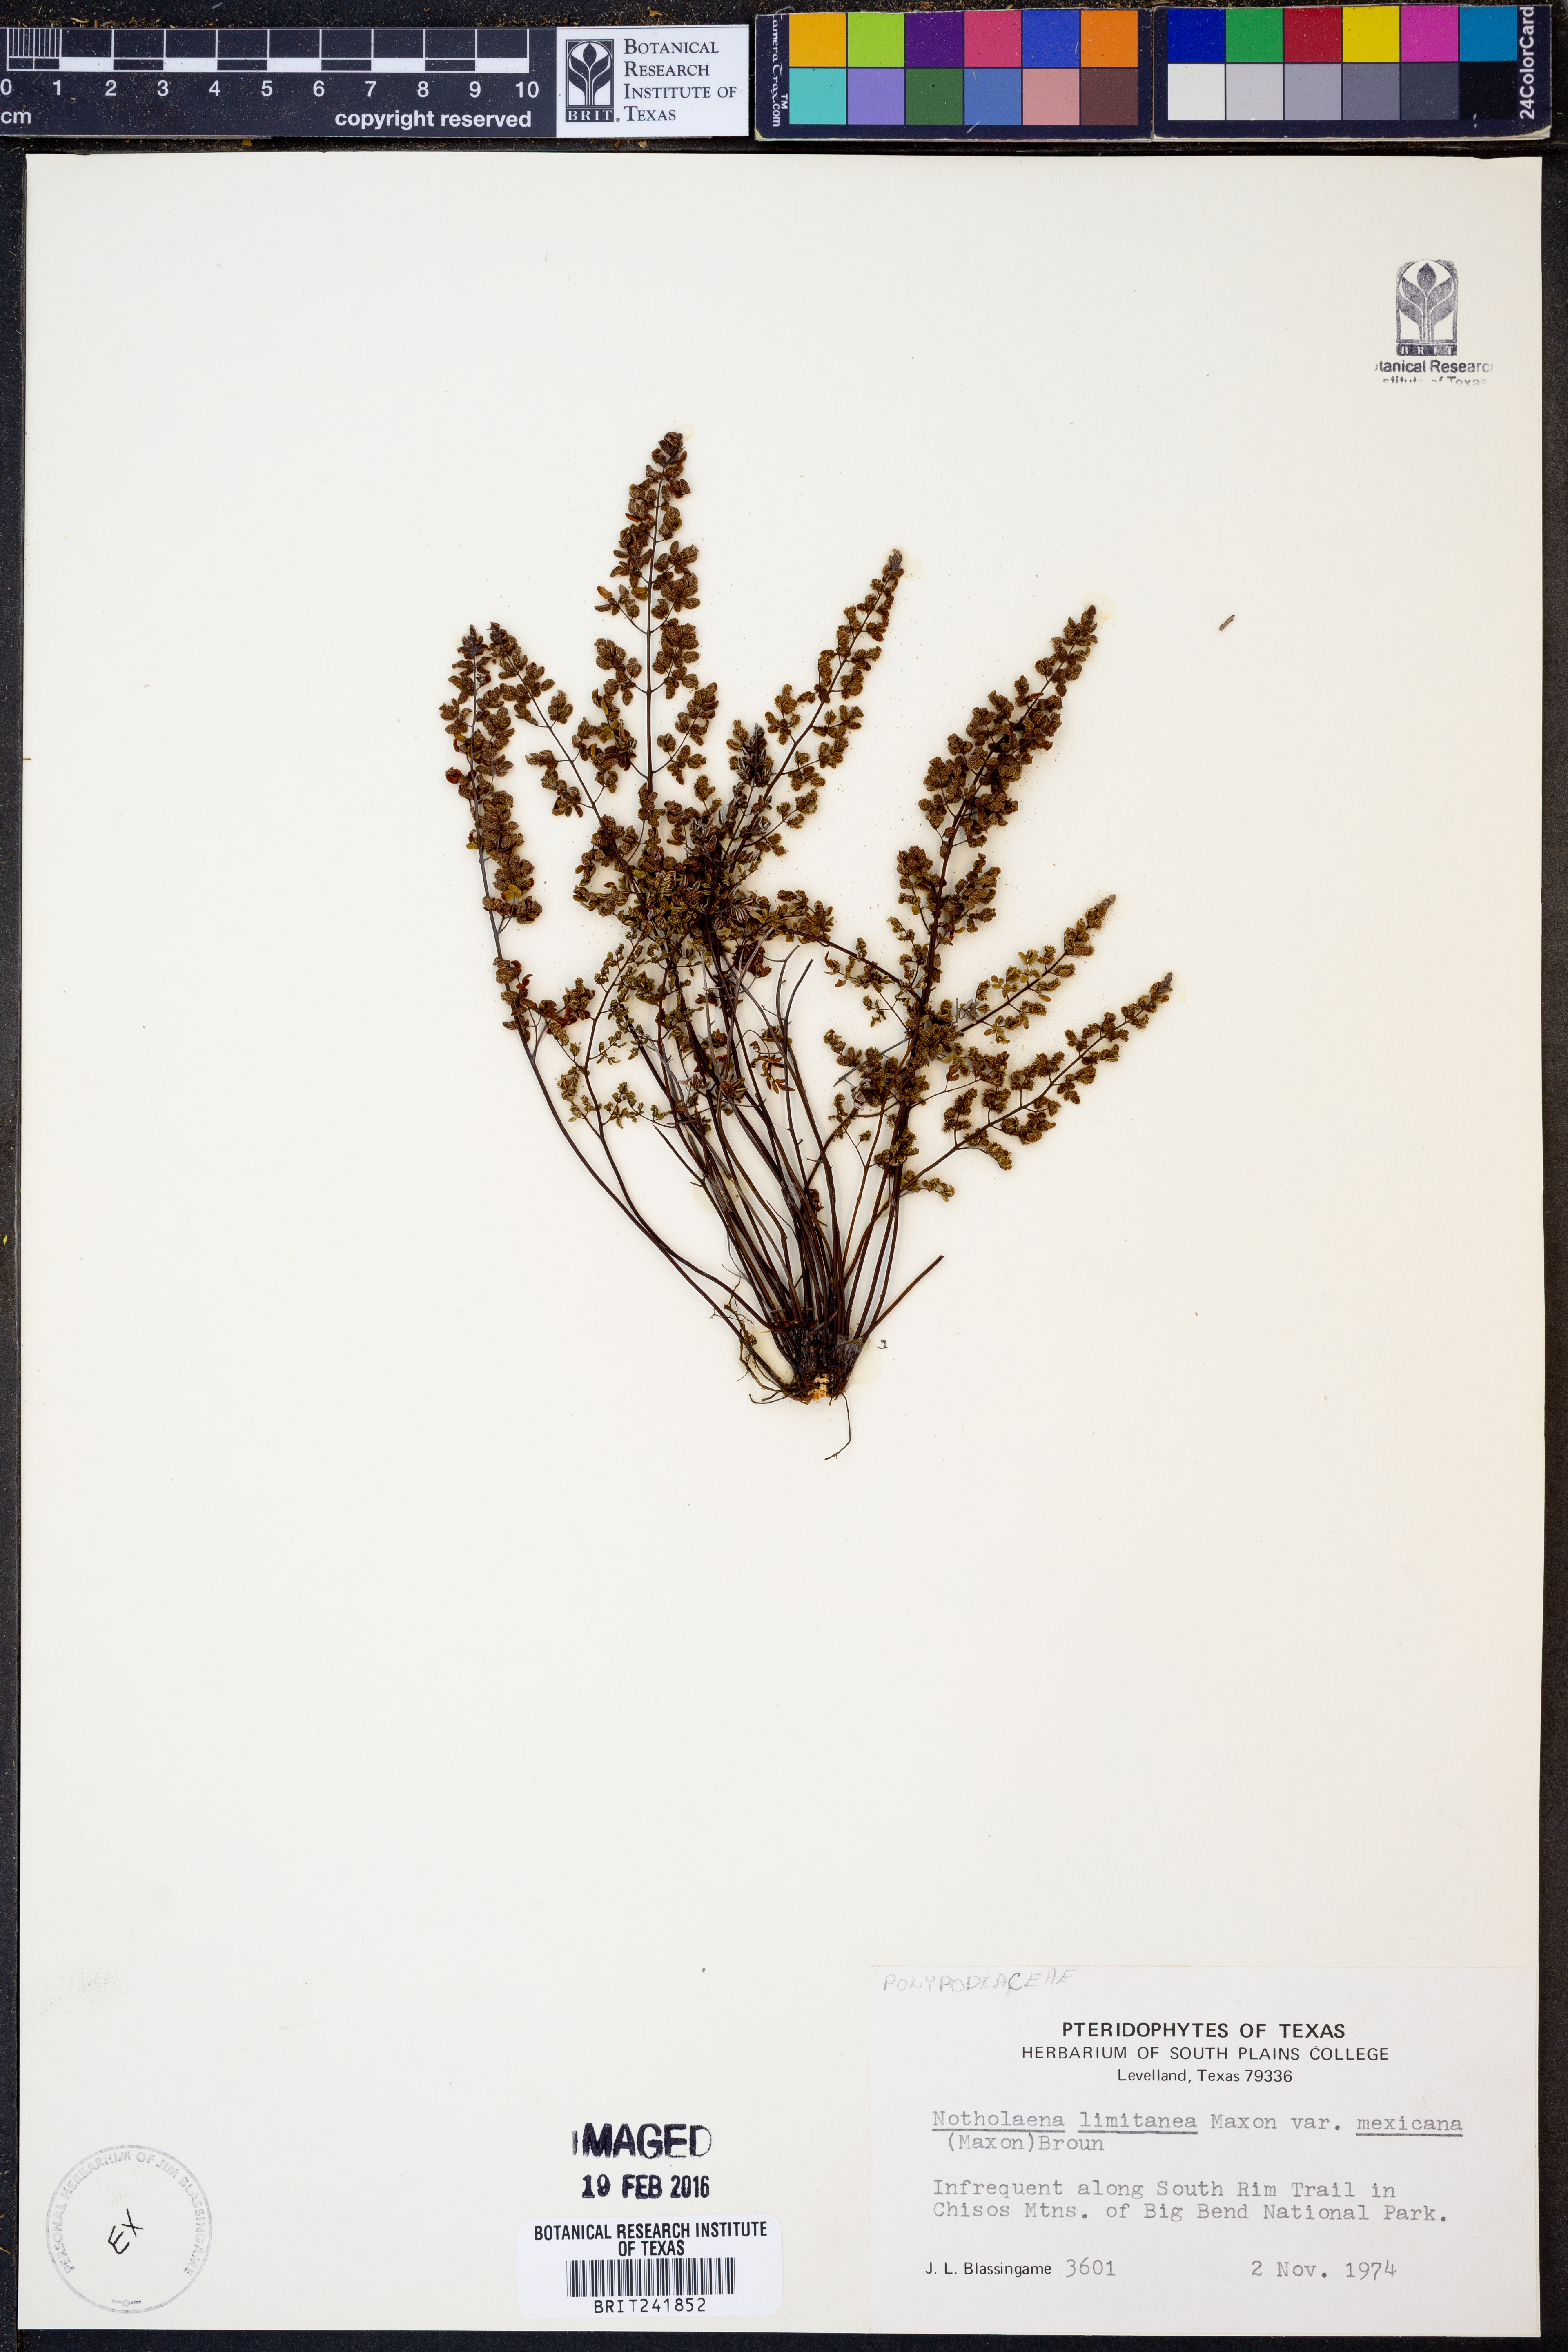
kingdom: Plantae
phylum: Tracheophyta
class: Polypodiopsida
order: Polypodiales
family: Pteridaceae
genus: Argyrochosma
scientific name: Argyrochosma limitanea
